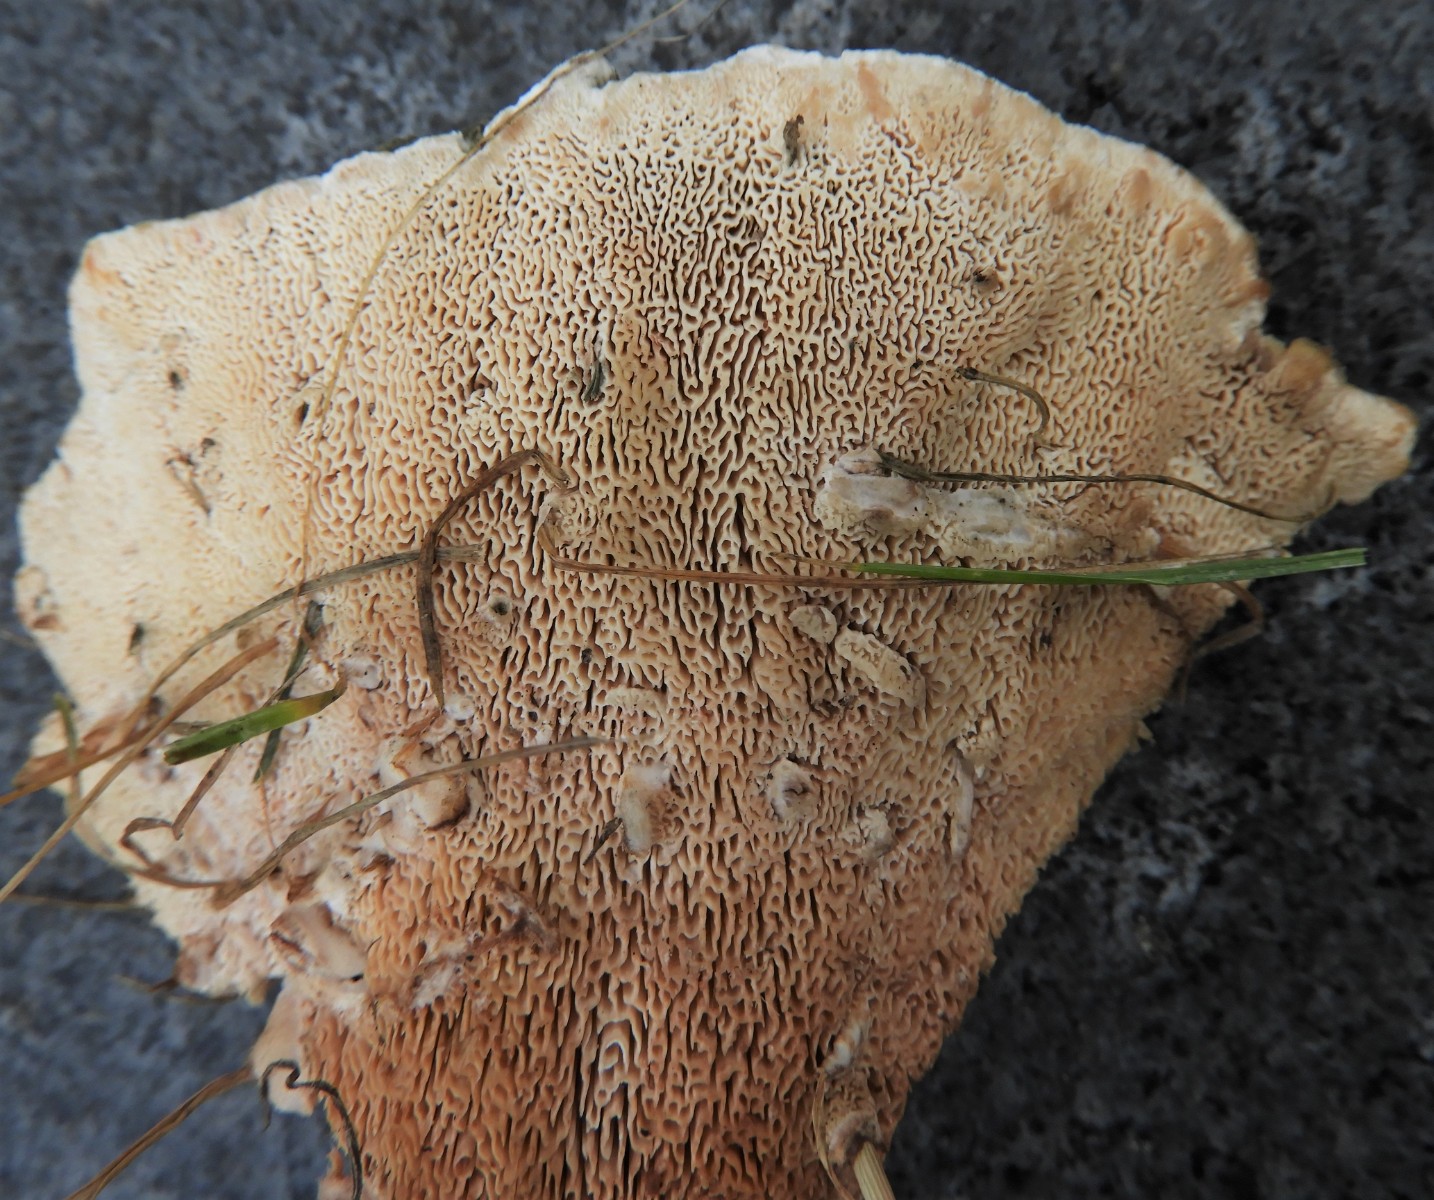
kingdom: Fungi
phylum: Basidiomycota
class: Agaricomycetes
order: Polyporales
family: Podoscyphaceae
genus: Abortiporus
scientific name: Abortiporus biennis
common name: rødmende pjalteporesvamp
